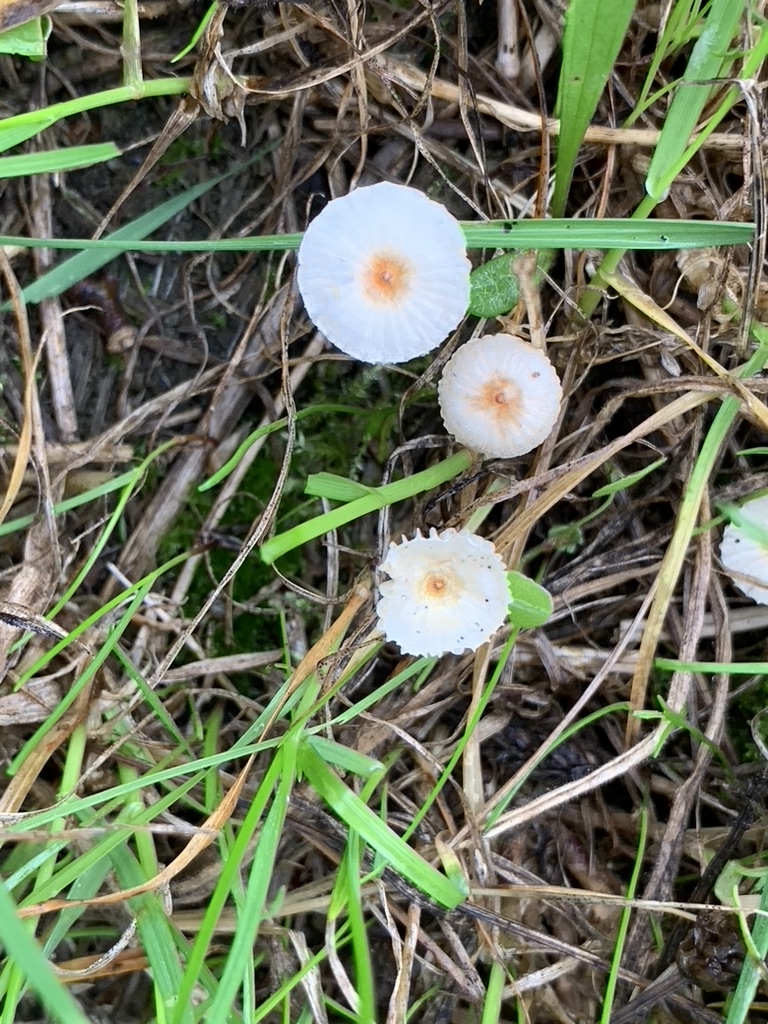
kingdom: Fungi
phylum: Basidiomycota
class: Agaricomycetes
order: Agaricales
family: Marasmiaceae
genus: Crinipellis
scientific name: Crinipellis scabella
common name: børstefod
